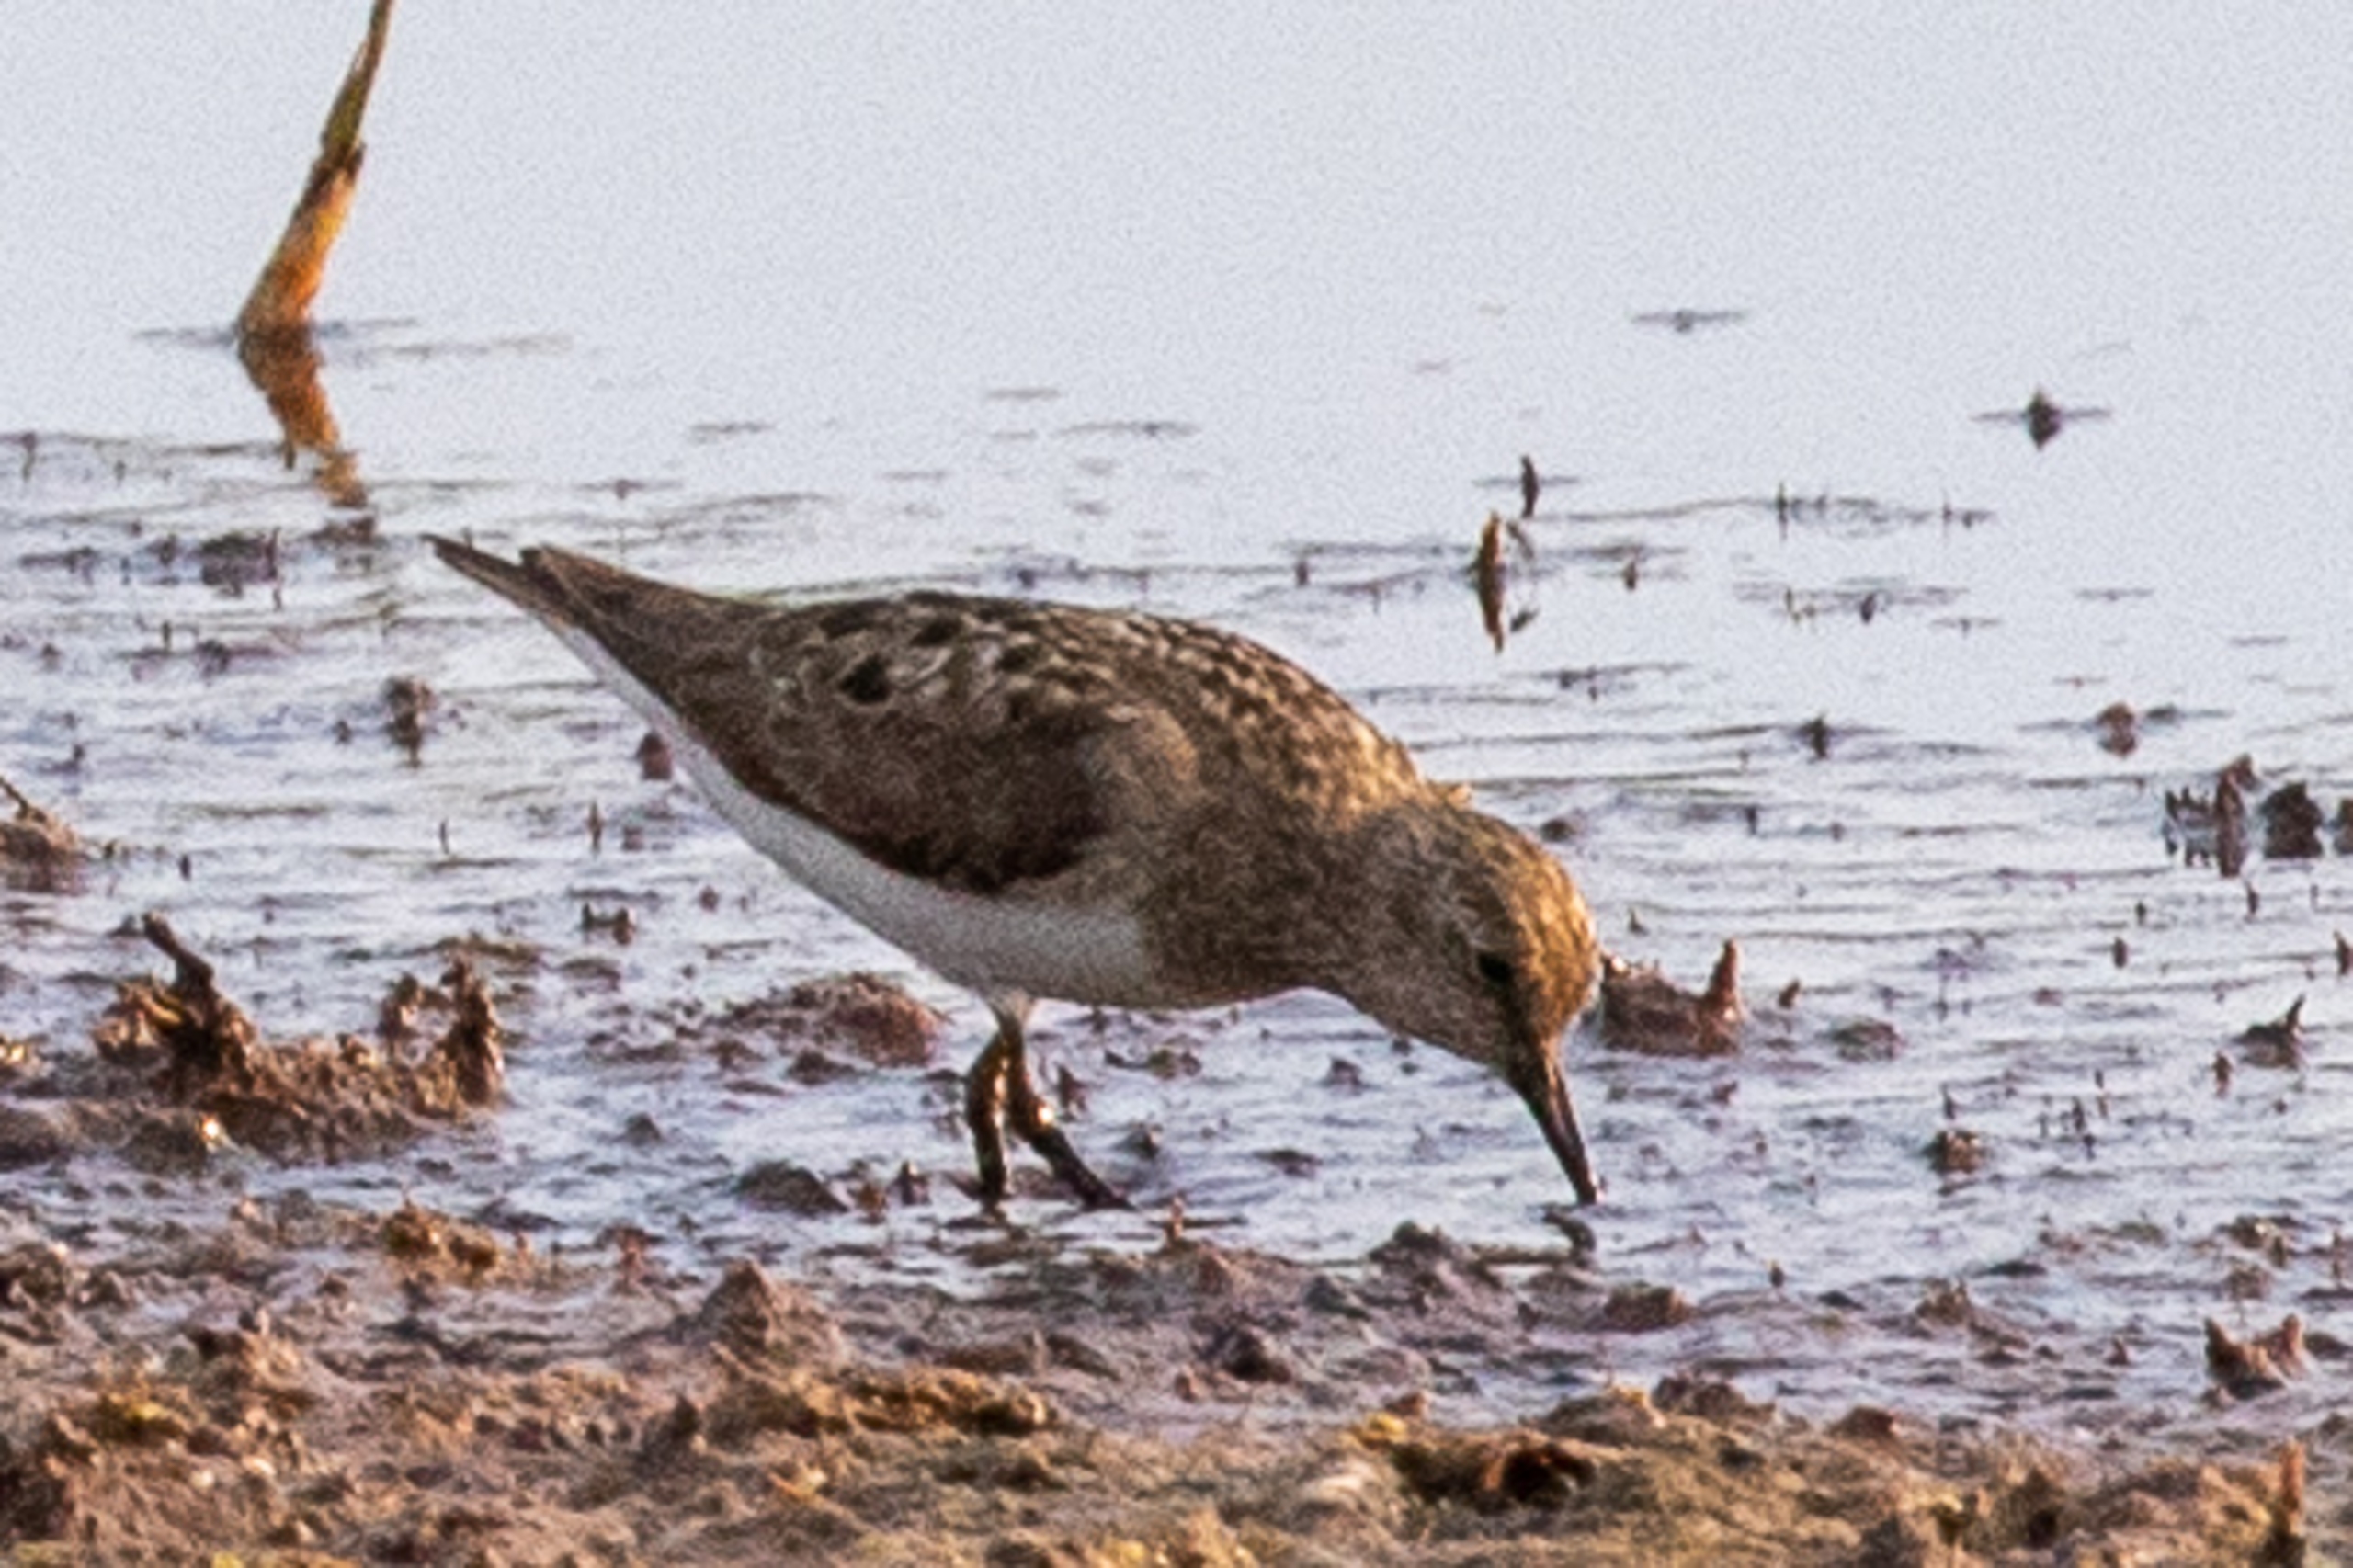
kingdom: Animalia
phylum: Chordata
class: Aves
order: Charadriiformes
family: Scolopacidae
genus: Calidris
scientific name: Calidris temminckii
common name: Temmincksryle
